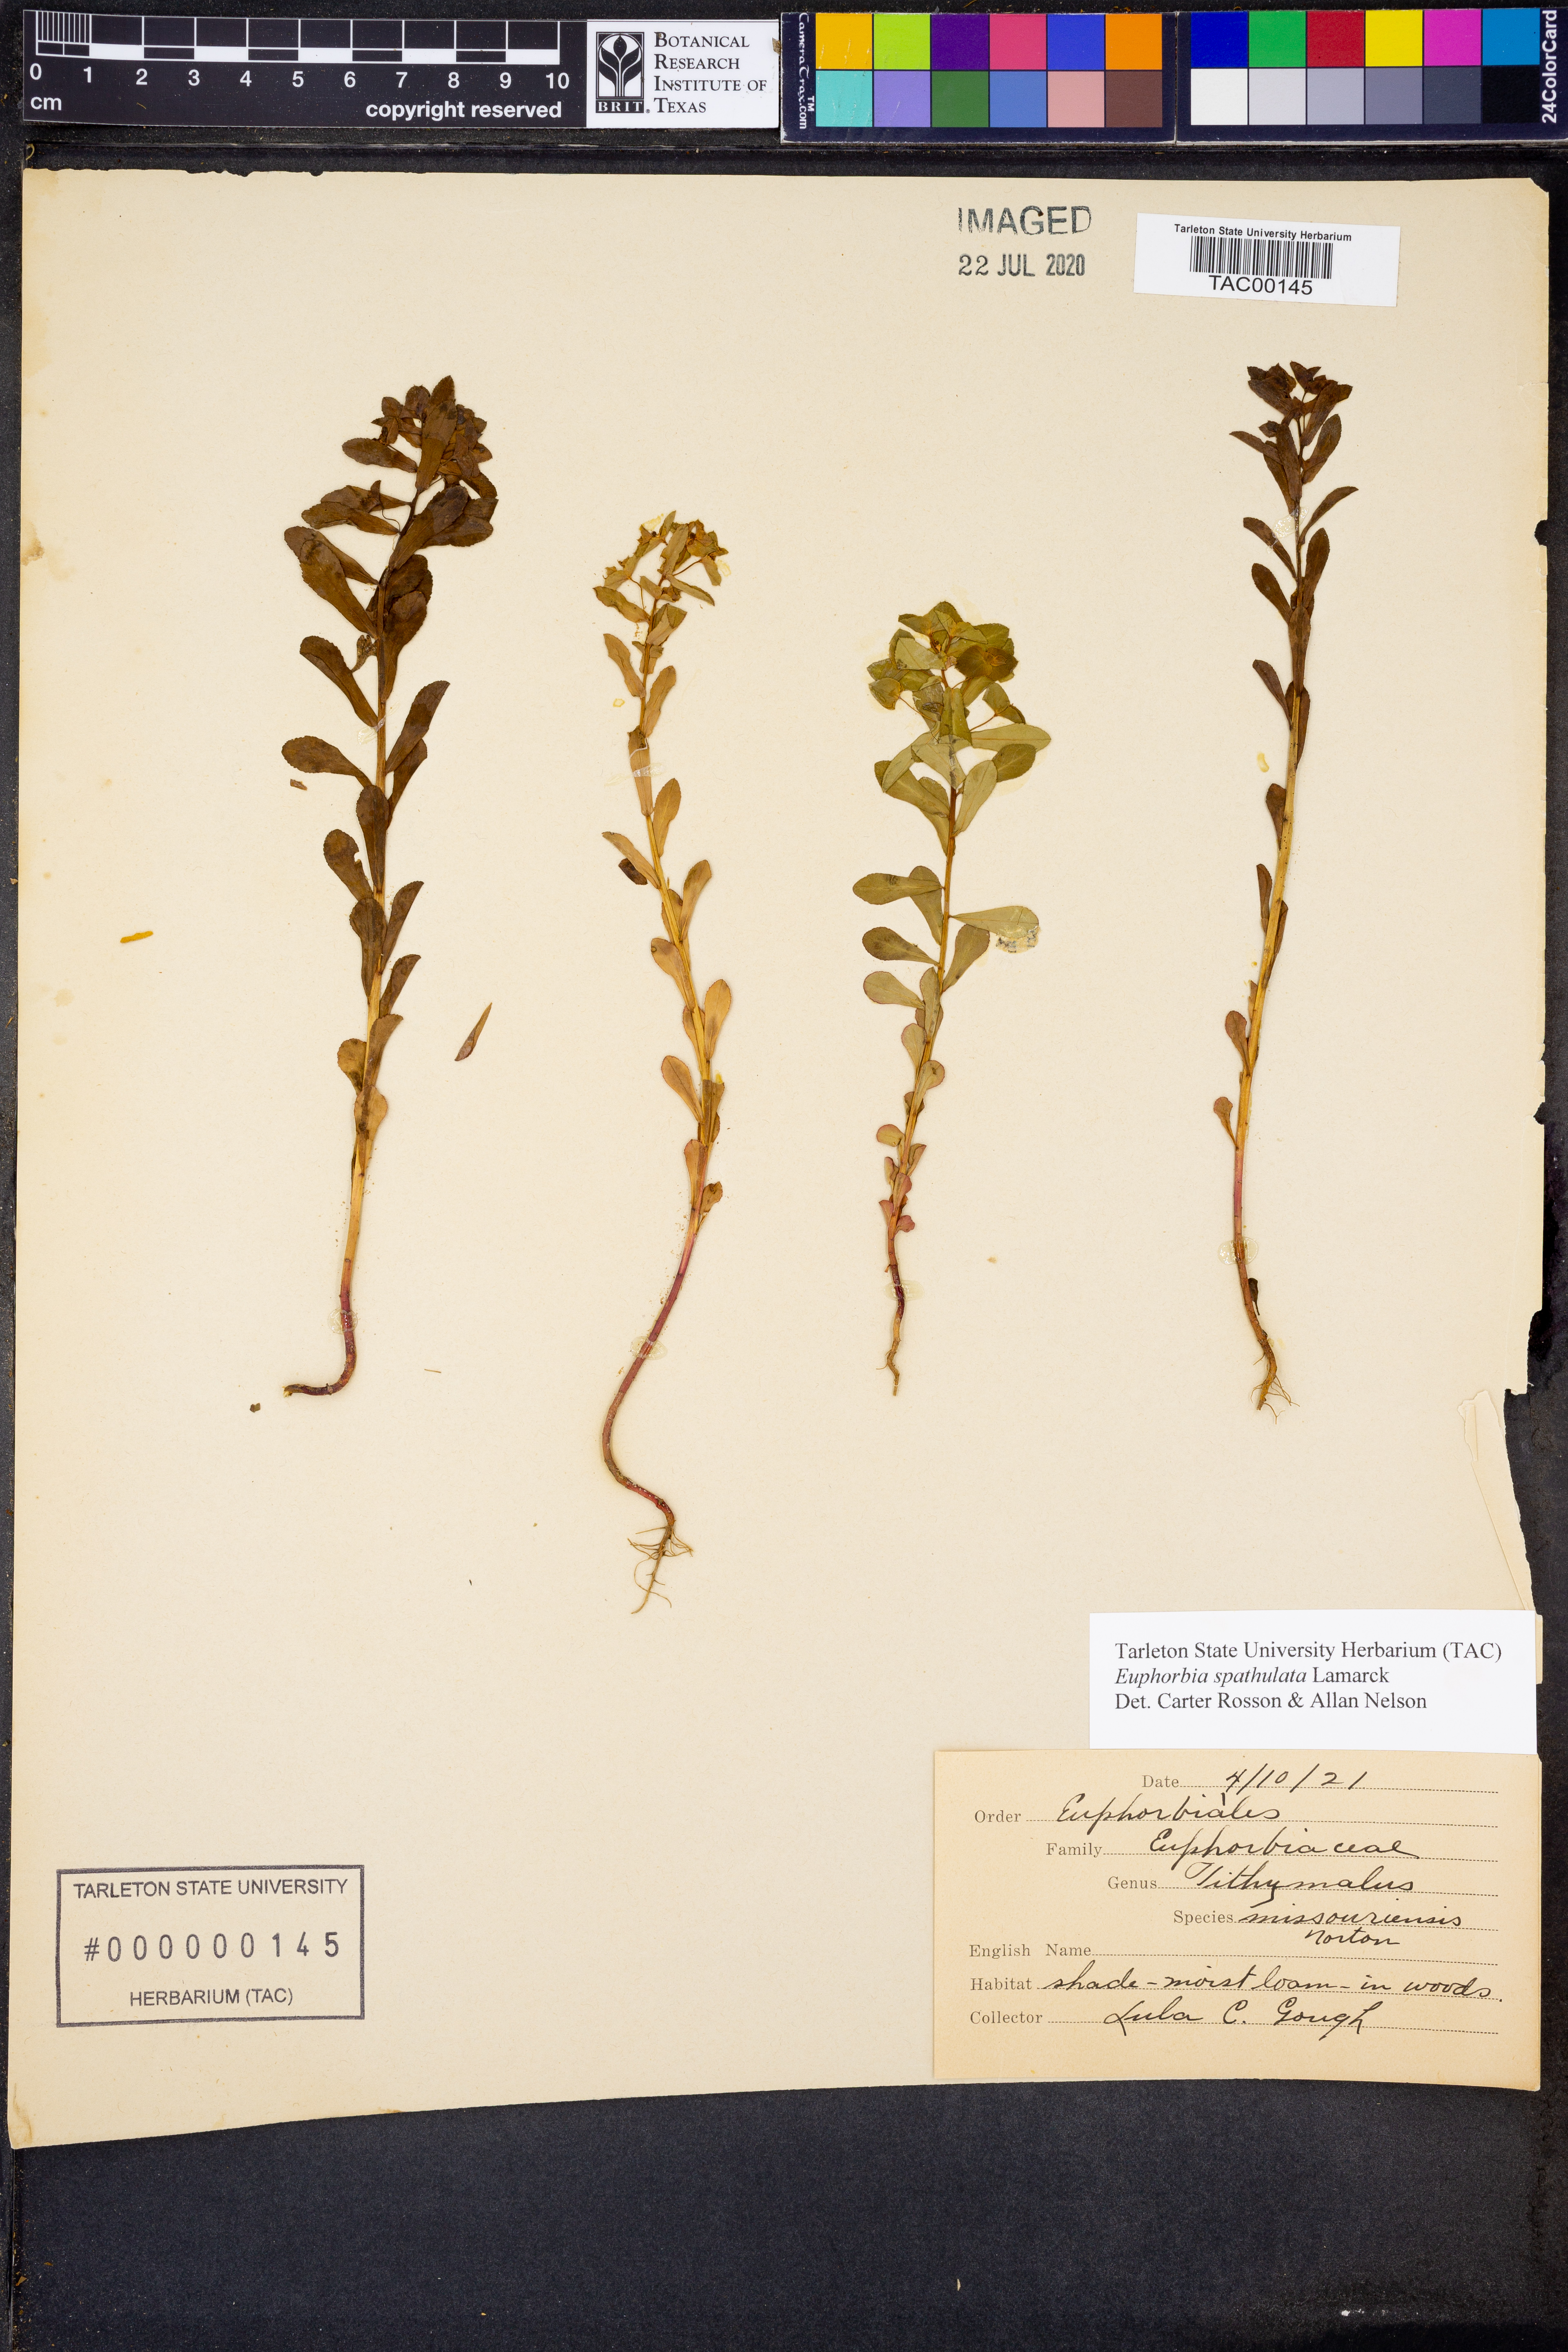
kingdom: Plantae
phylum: Tracheophyta
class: Magnoliopsida
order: Malpighiales
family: Euphorbiaceae
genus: Euphorbia
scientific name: Euphorbia spathulata
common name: Blunt spurge
